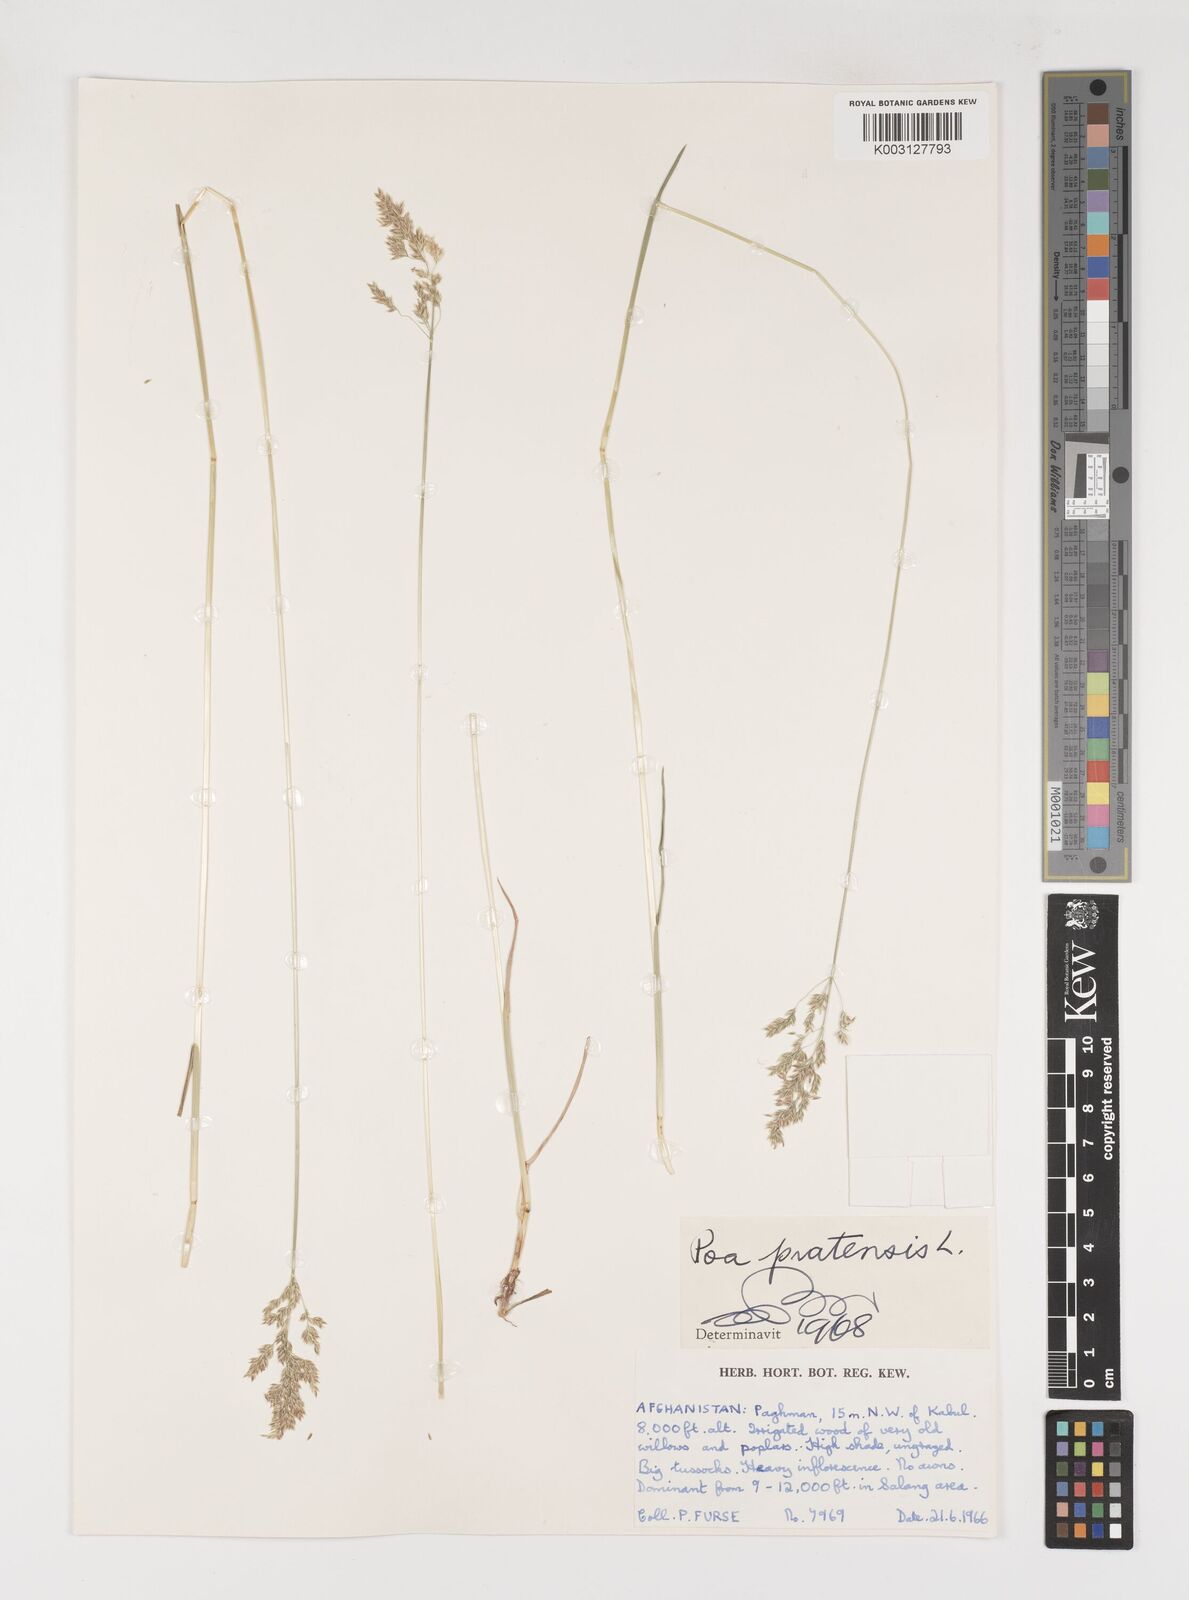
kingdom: Plantae
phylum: Tracheophyta
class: Liliopsida
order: Poales
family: Poaceae
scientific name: Poaceae
